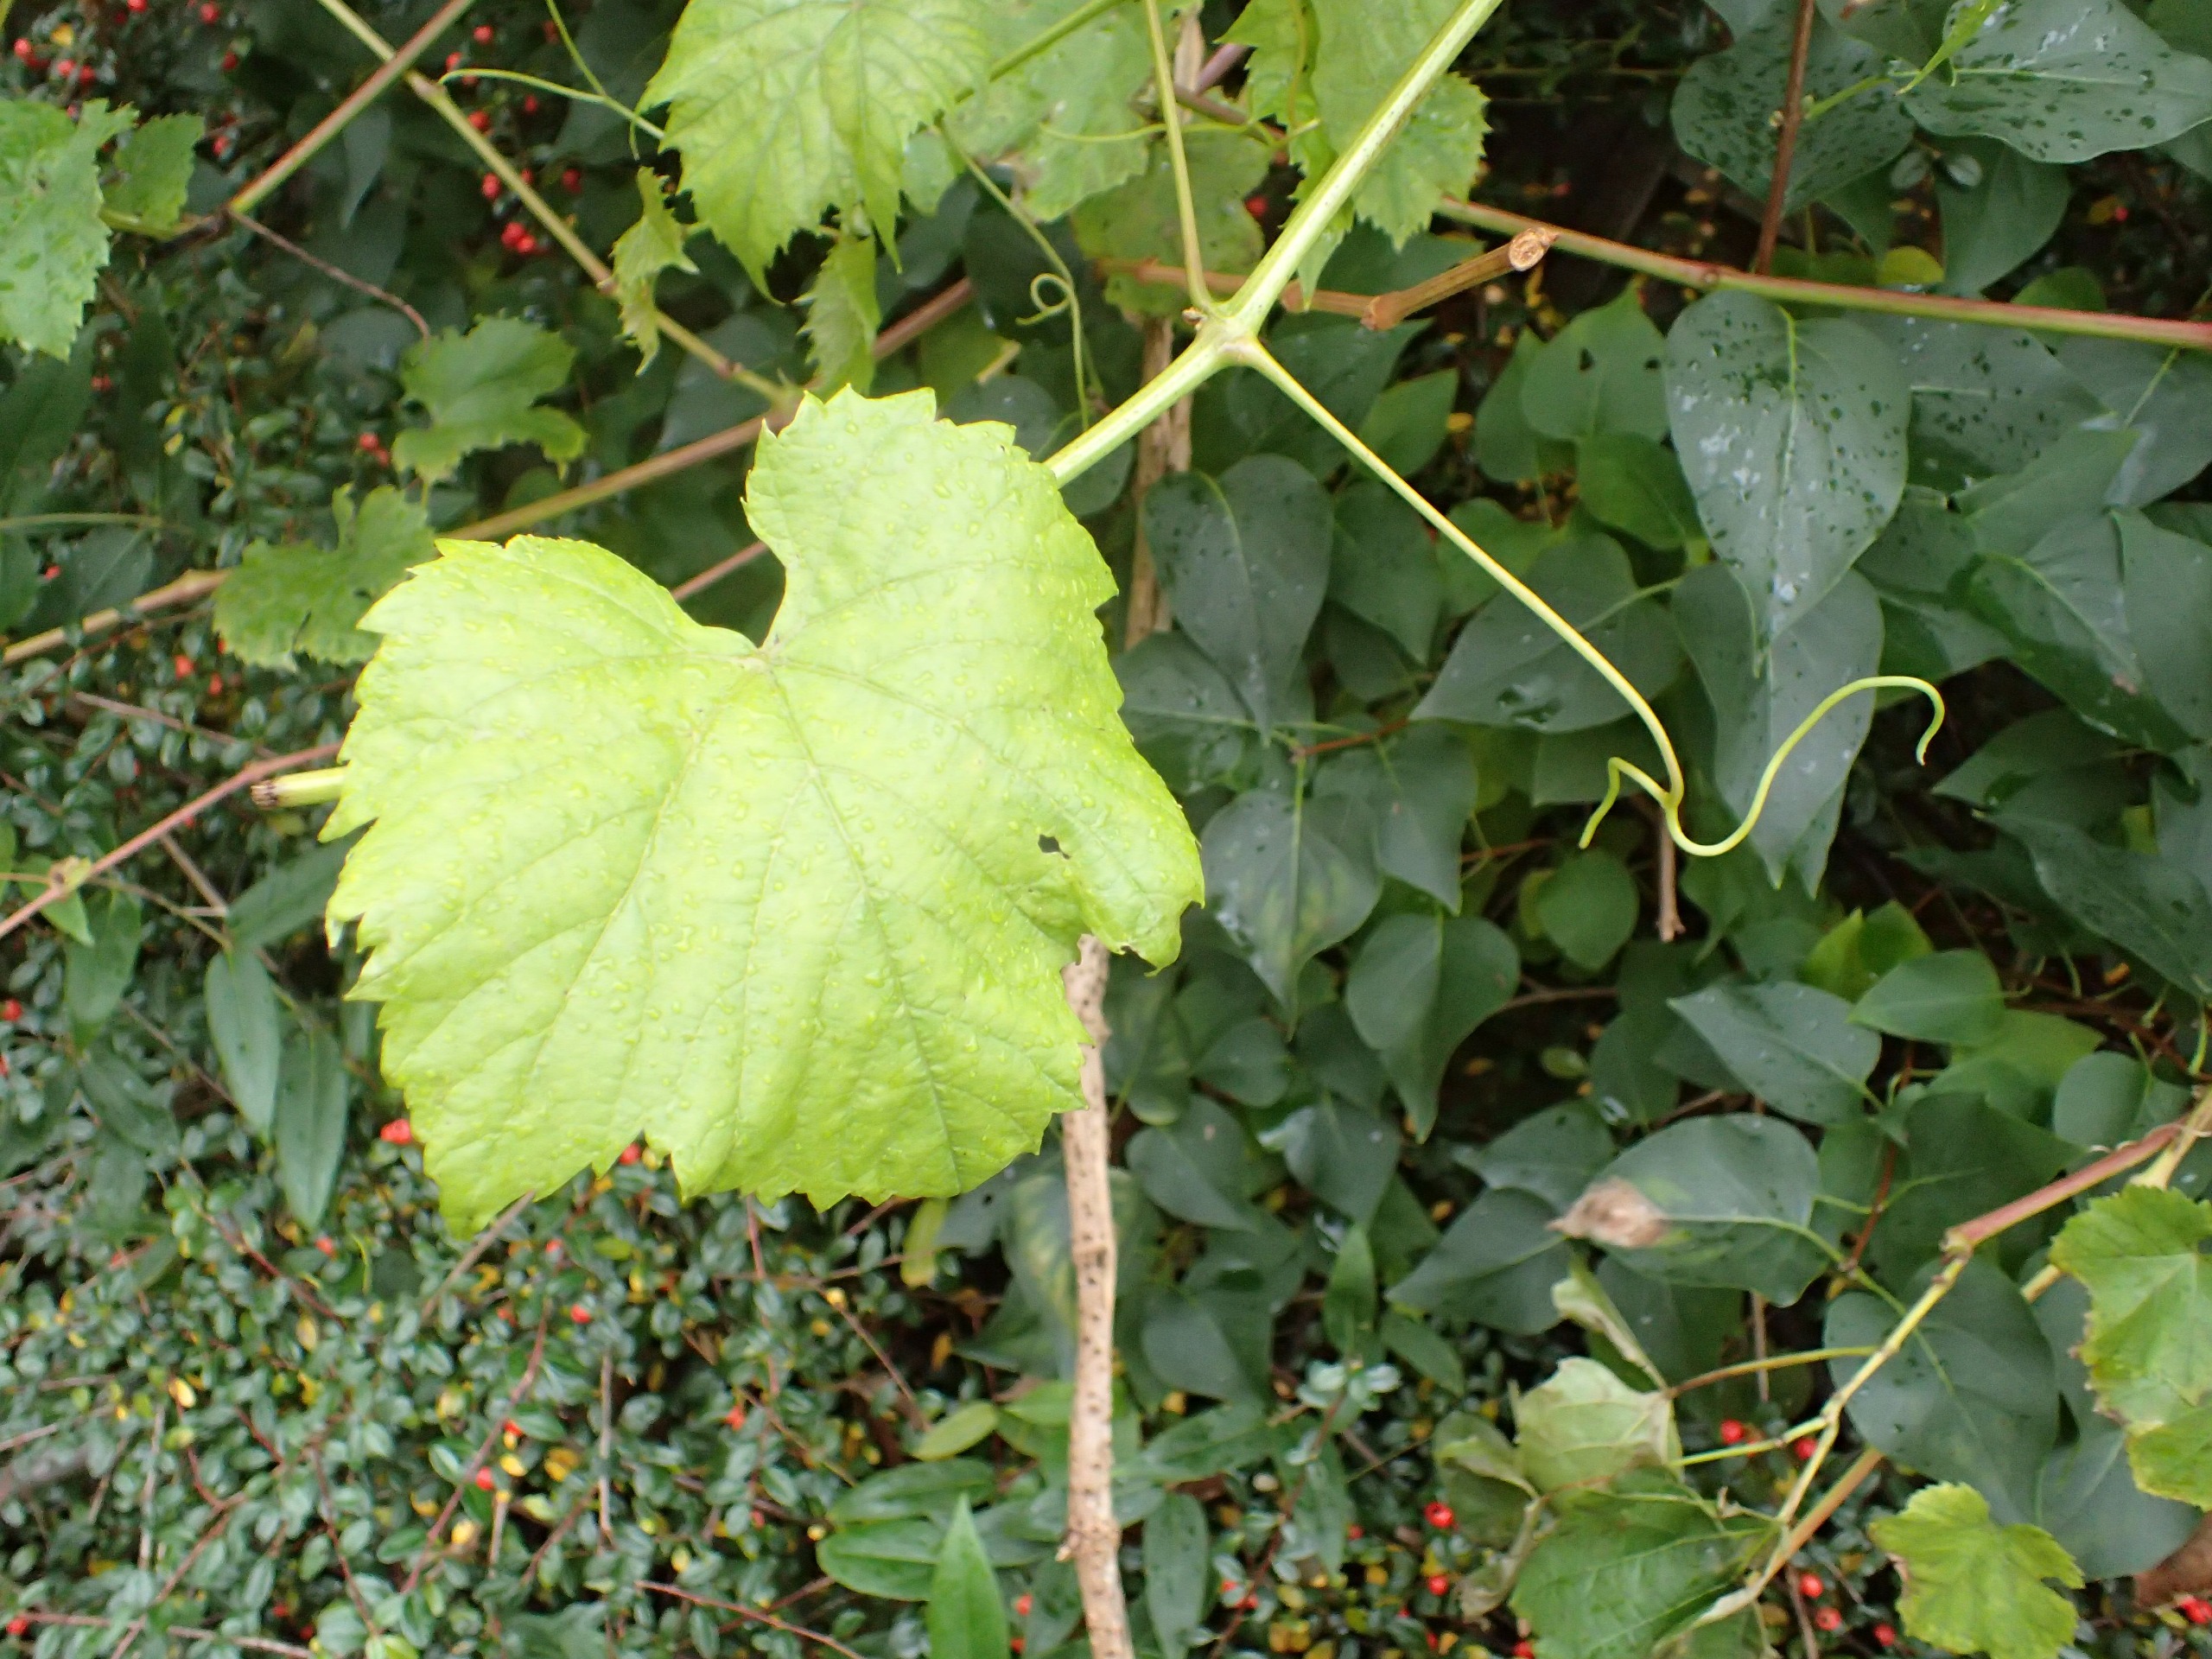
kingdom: Plantae
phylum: Tracheophyta
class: Magnoliopsida
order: Vitales
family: Vitaceae
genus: Vitis
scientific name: Vitis vinifera
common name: Almindelig vin
